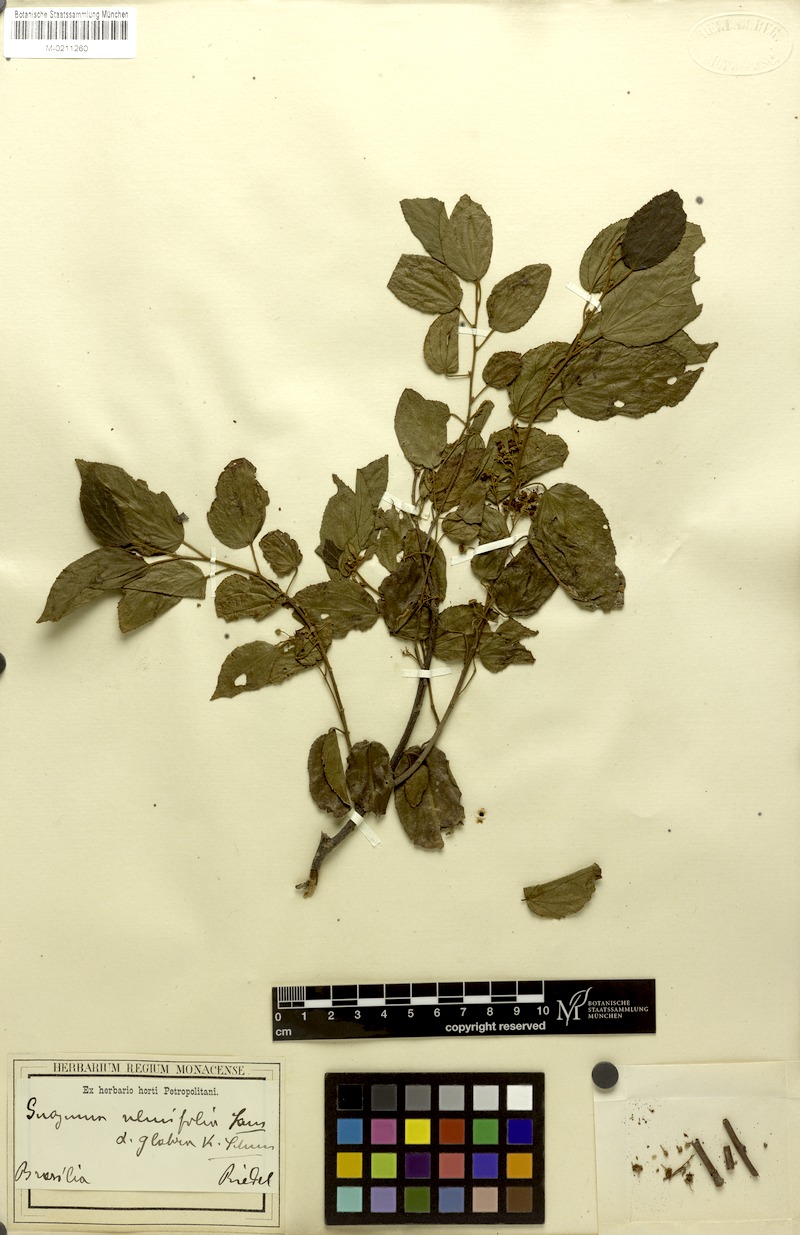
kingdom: Plantae
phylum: Tracheophyta
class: Magnoliopsida
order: Malvales
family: Malvaceae
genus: Guazuma
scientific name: Guazuma ulmifolia
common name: Bastard-cedar
